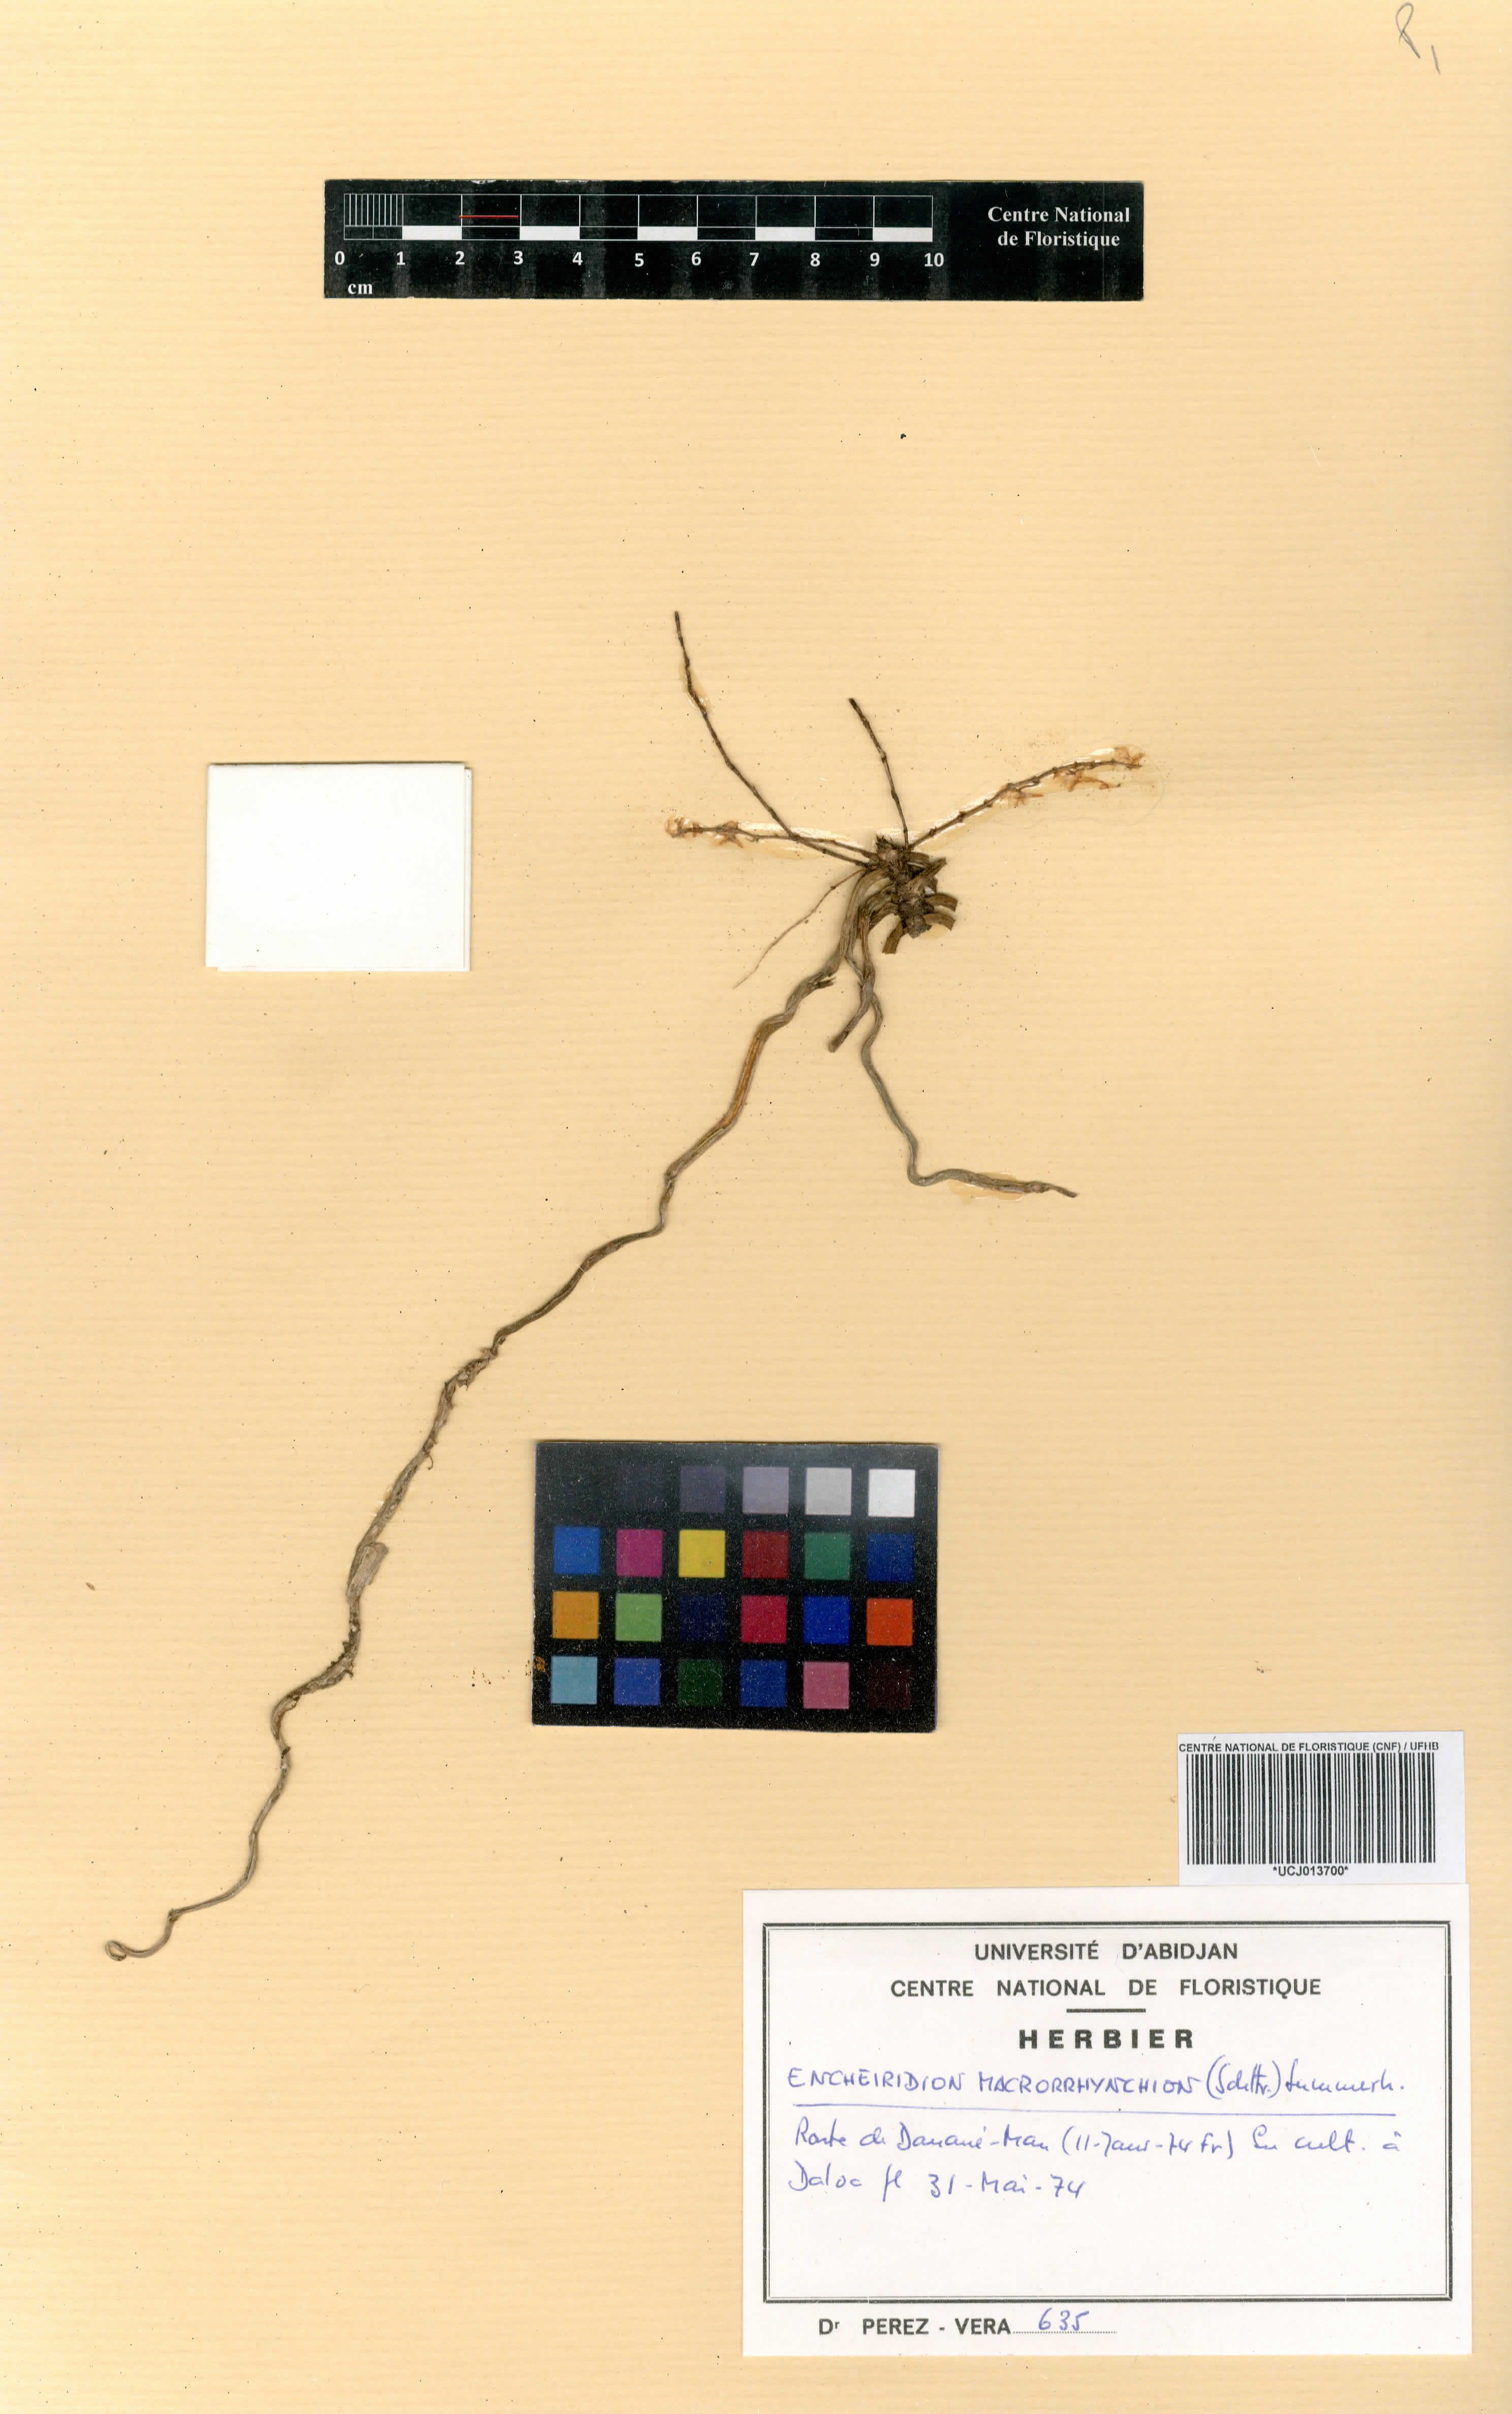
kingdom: Plantae
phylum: Tracheophyta
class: Liliopsida
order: Asparagales
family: Orchidaceae
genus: Microcoelia
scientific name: Microcoelia macrorrhynchia
